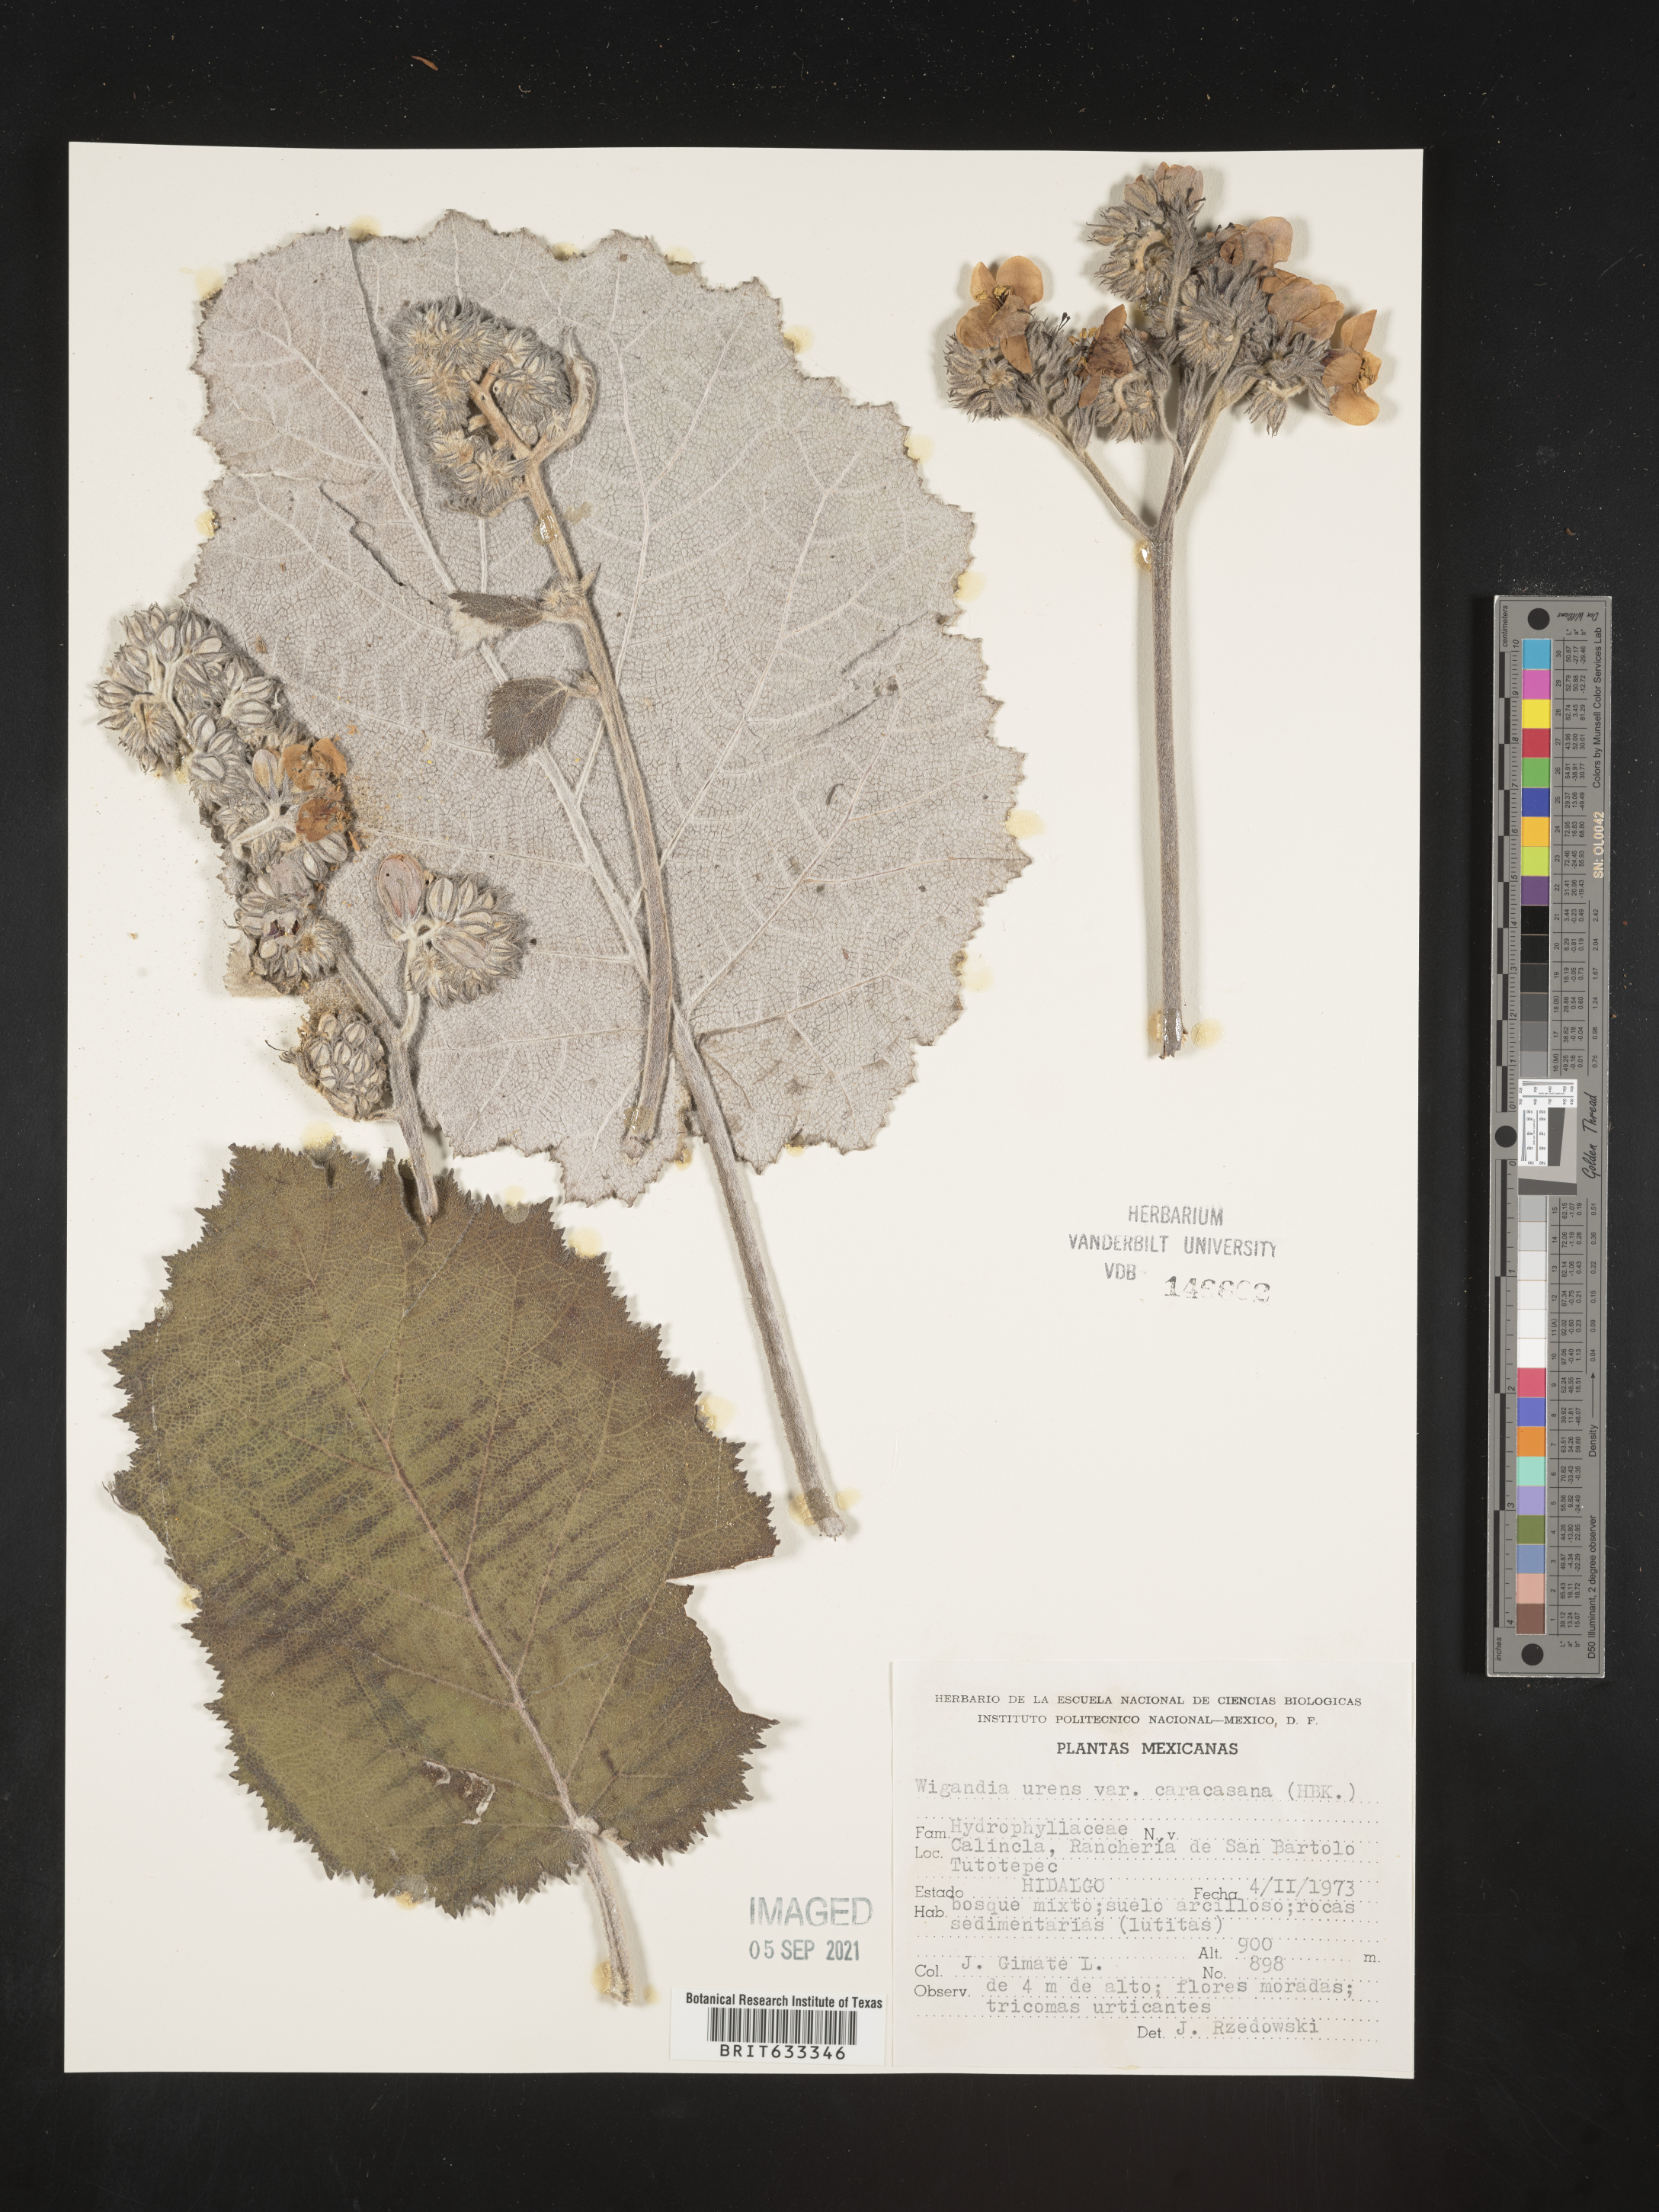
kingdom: Plantae
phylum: Tracheophyta
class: Magnoliopsida
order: Boraginales
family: Hydrophyllaceae
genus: Wiganda
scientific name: Wiganda
